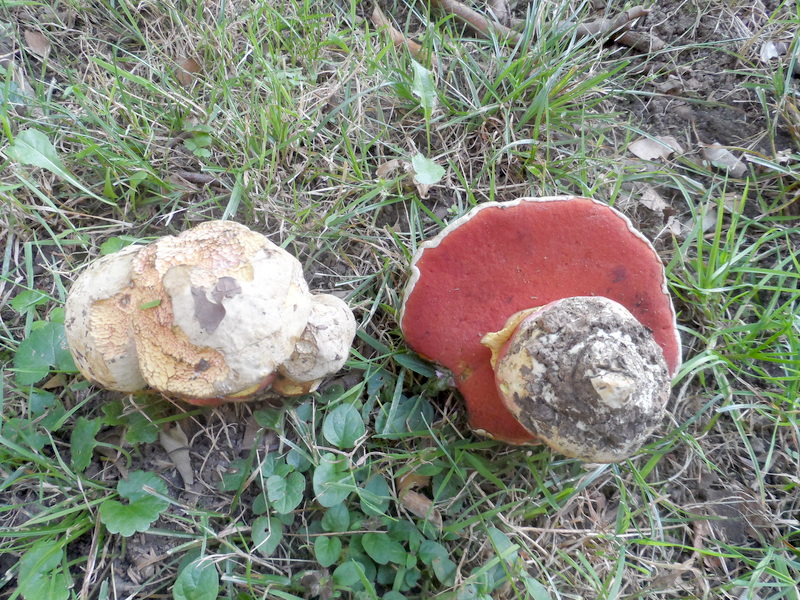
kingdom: Fungi
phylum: Basidiomycota
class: Agaricomycetes
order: Boletales
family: Boletaceae
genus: Rubroboletus
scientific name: Rubroboletus satanas
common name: Devil's bolete
